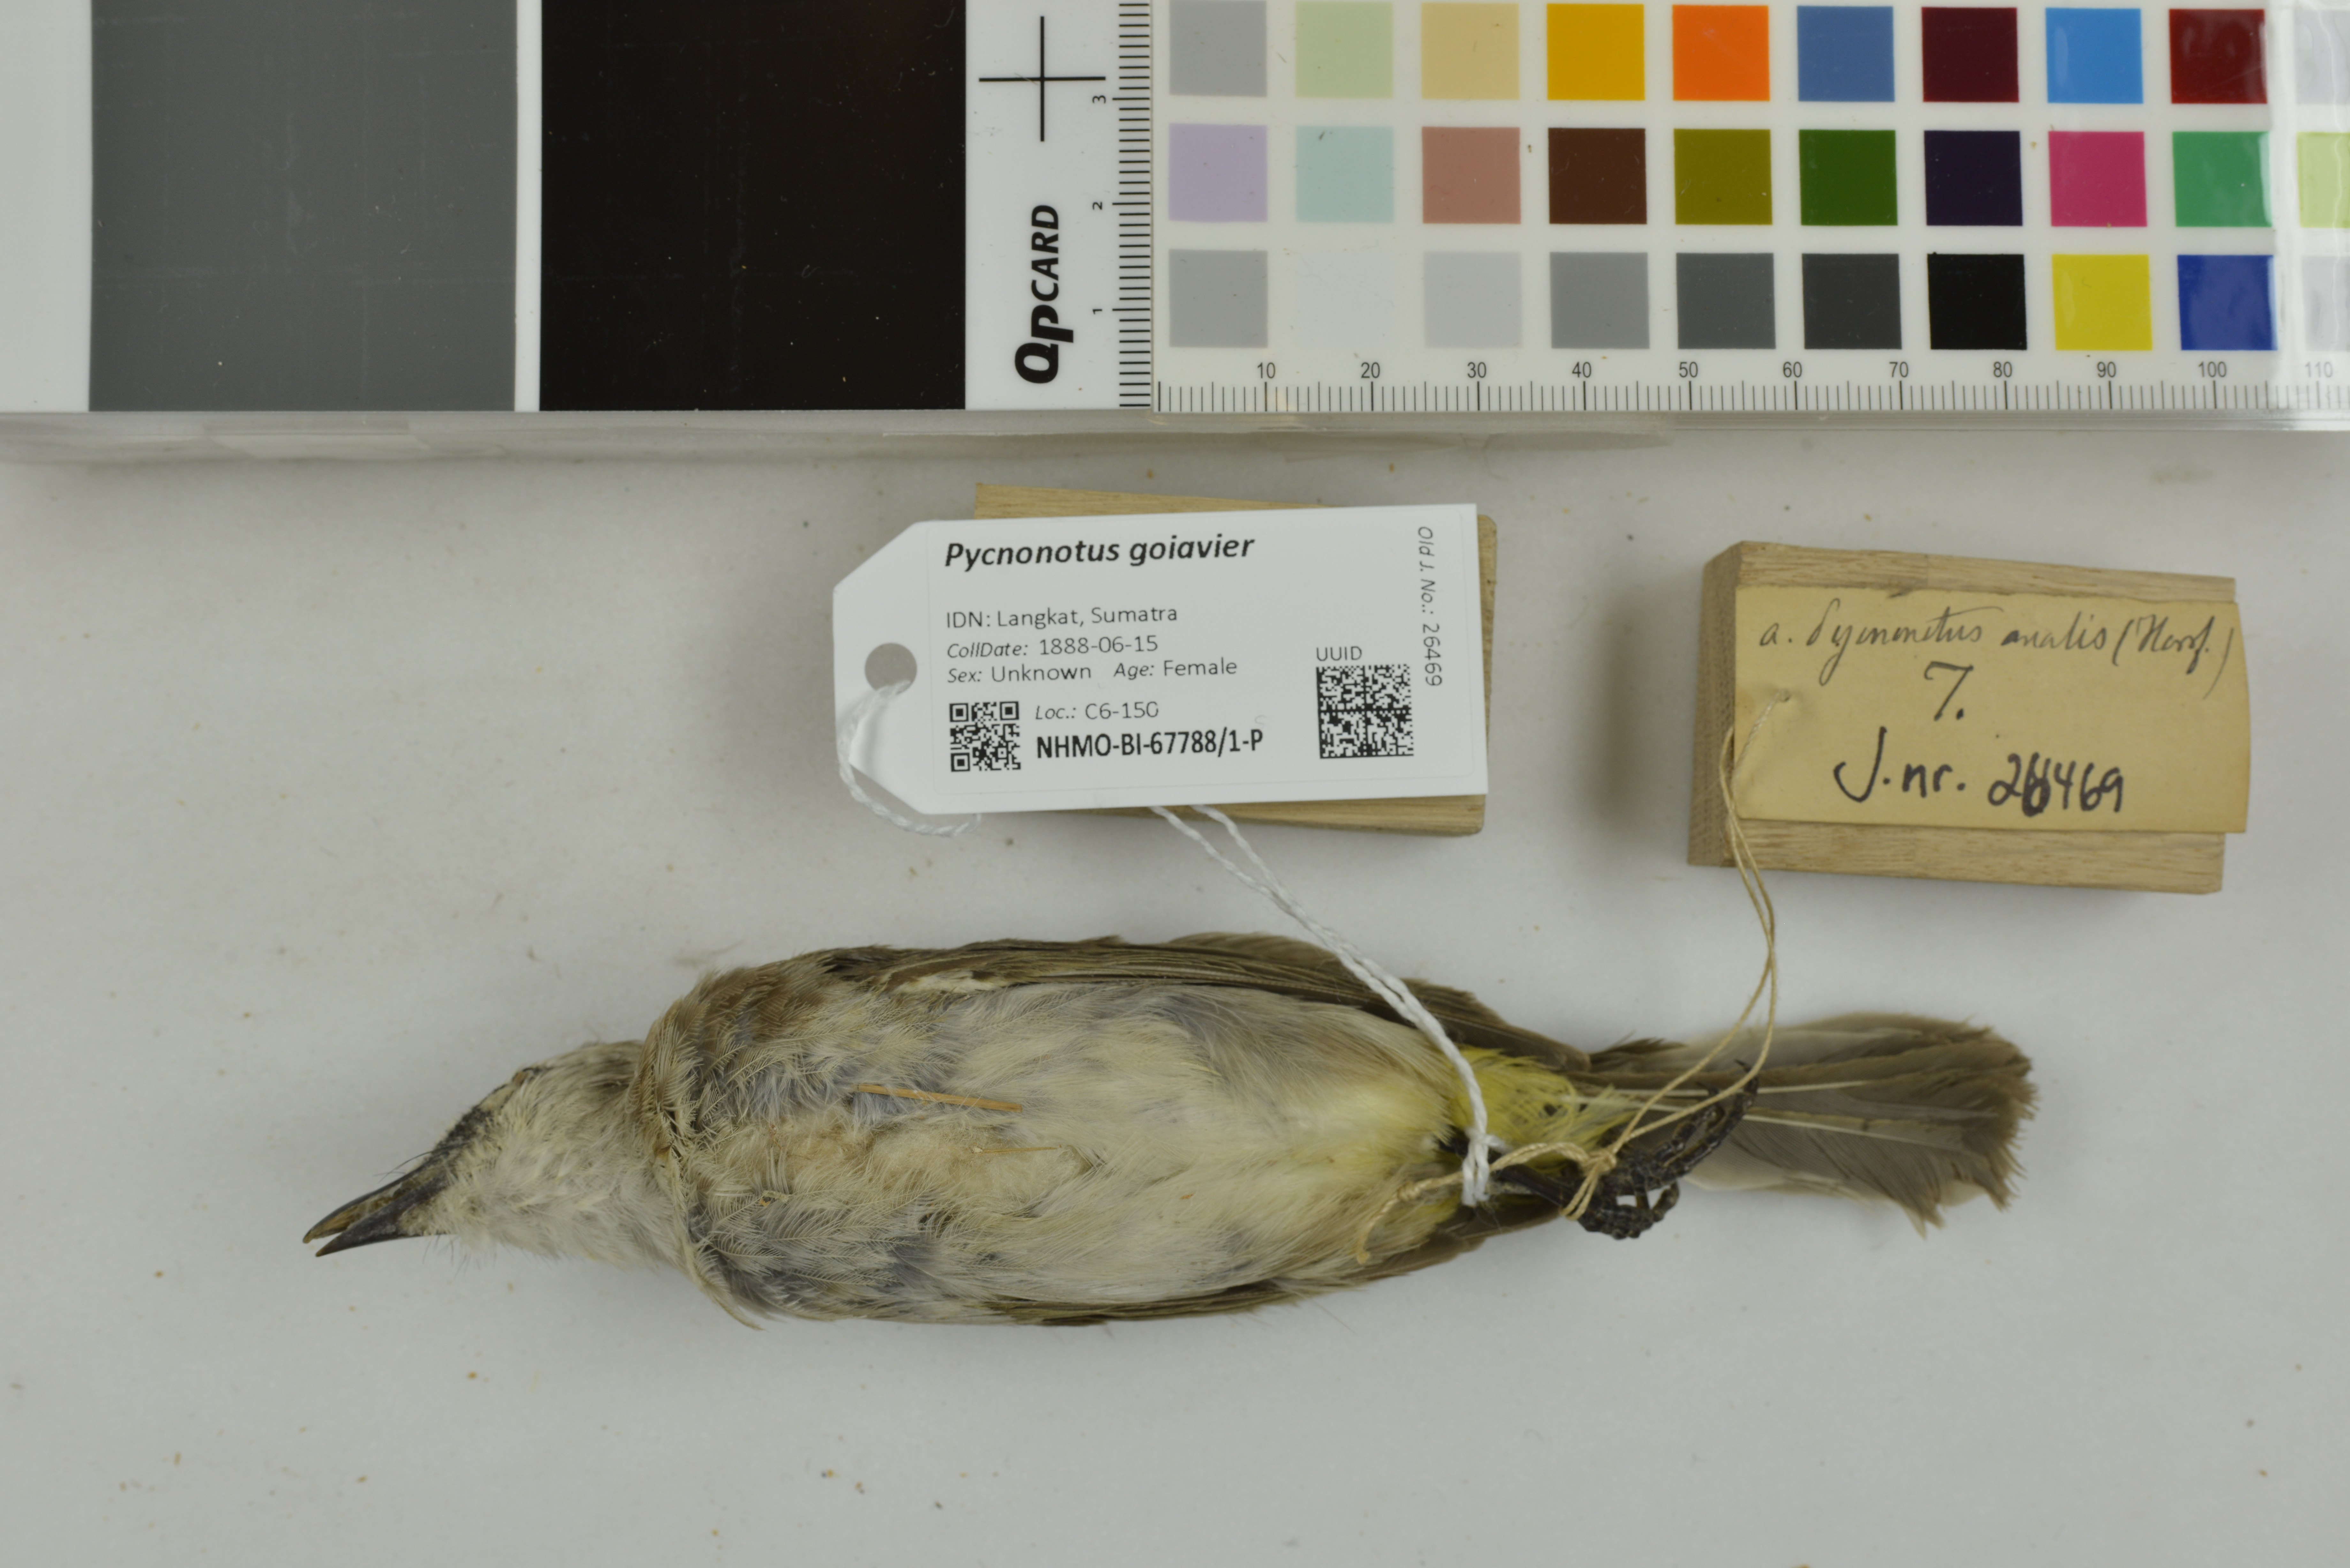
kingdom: Animalia
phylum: Chordata
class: Aves
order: Passeriformes
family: Pycnonotidae
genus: Pycnonotus
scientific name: Pycnonotus goiavier
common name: Yellow-vented bulbul
